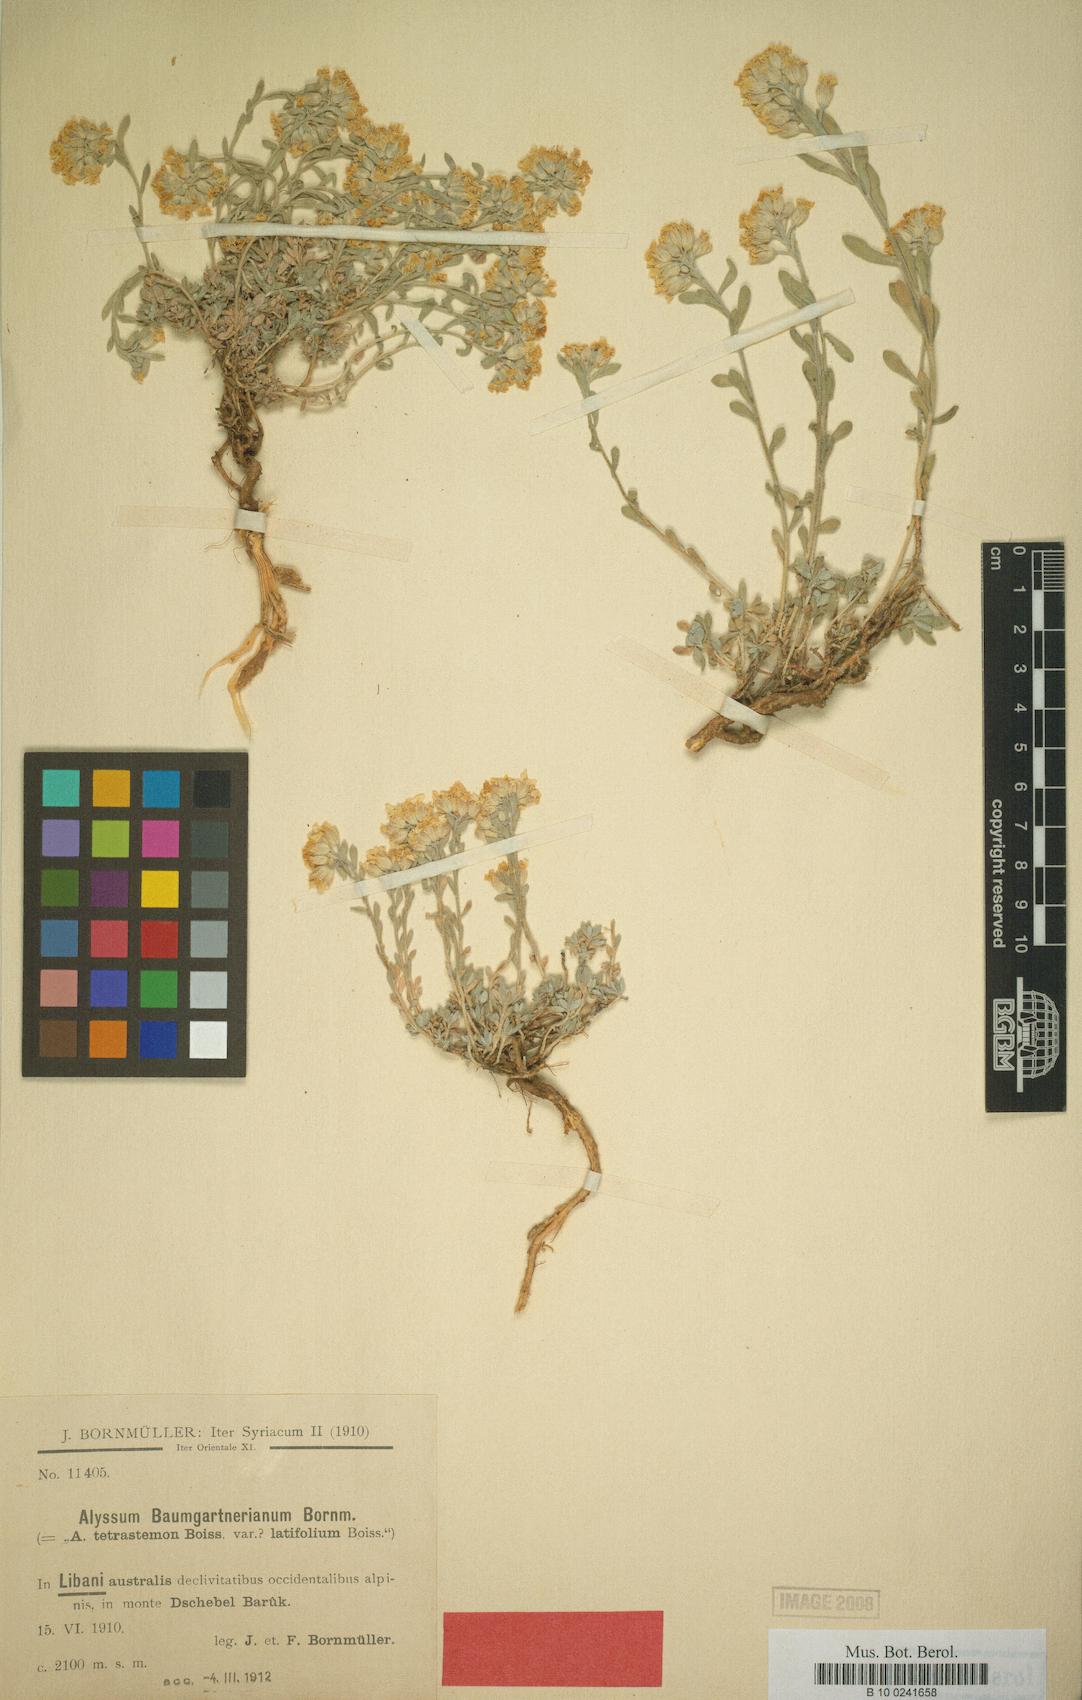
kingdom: Plantae
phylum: Tracheophyta
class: Magnoliopsida
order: Brassicales
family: Brassicaceae
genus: Alyssum
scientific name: Alyssum baumgartnerianum
